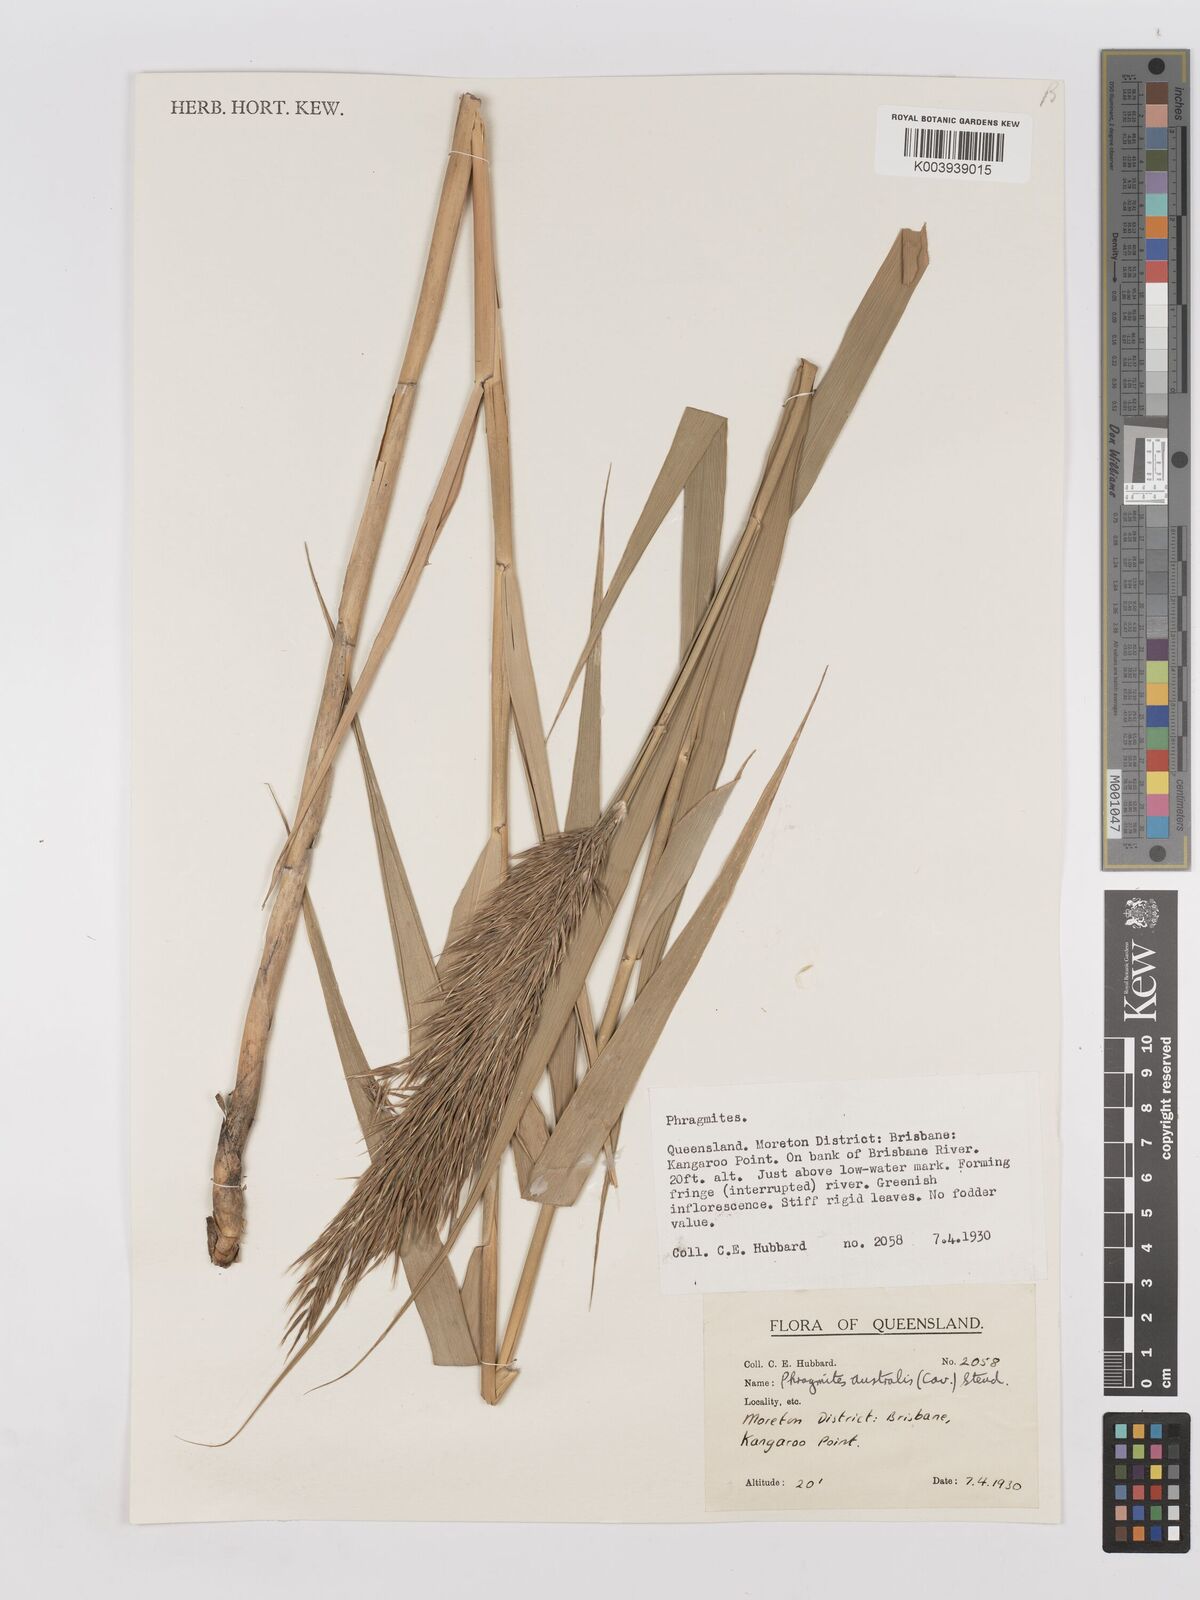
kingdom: Plantae
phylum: Tracheophyta
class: Liliopsida
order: Poales
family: Poaceae
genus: Phragmites
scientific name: Phragmites australis
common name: Common reed
